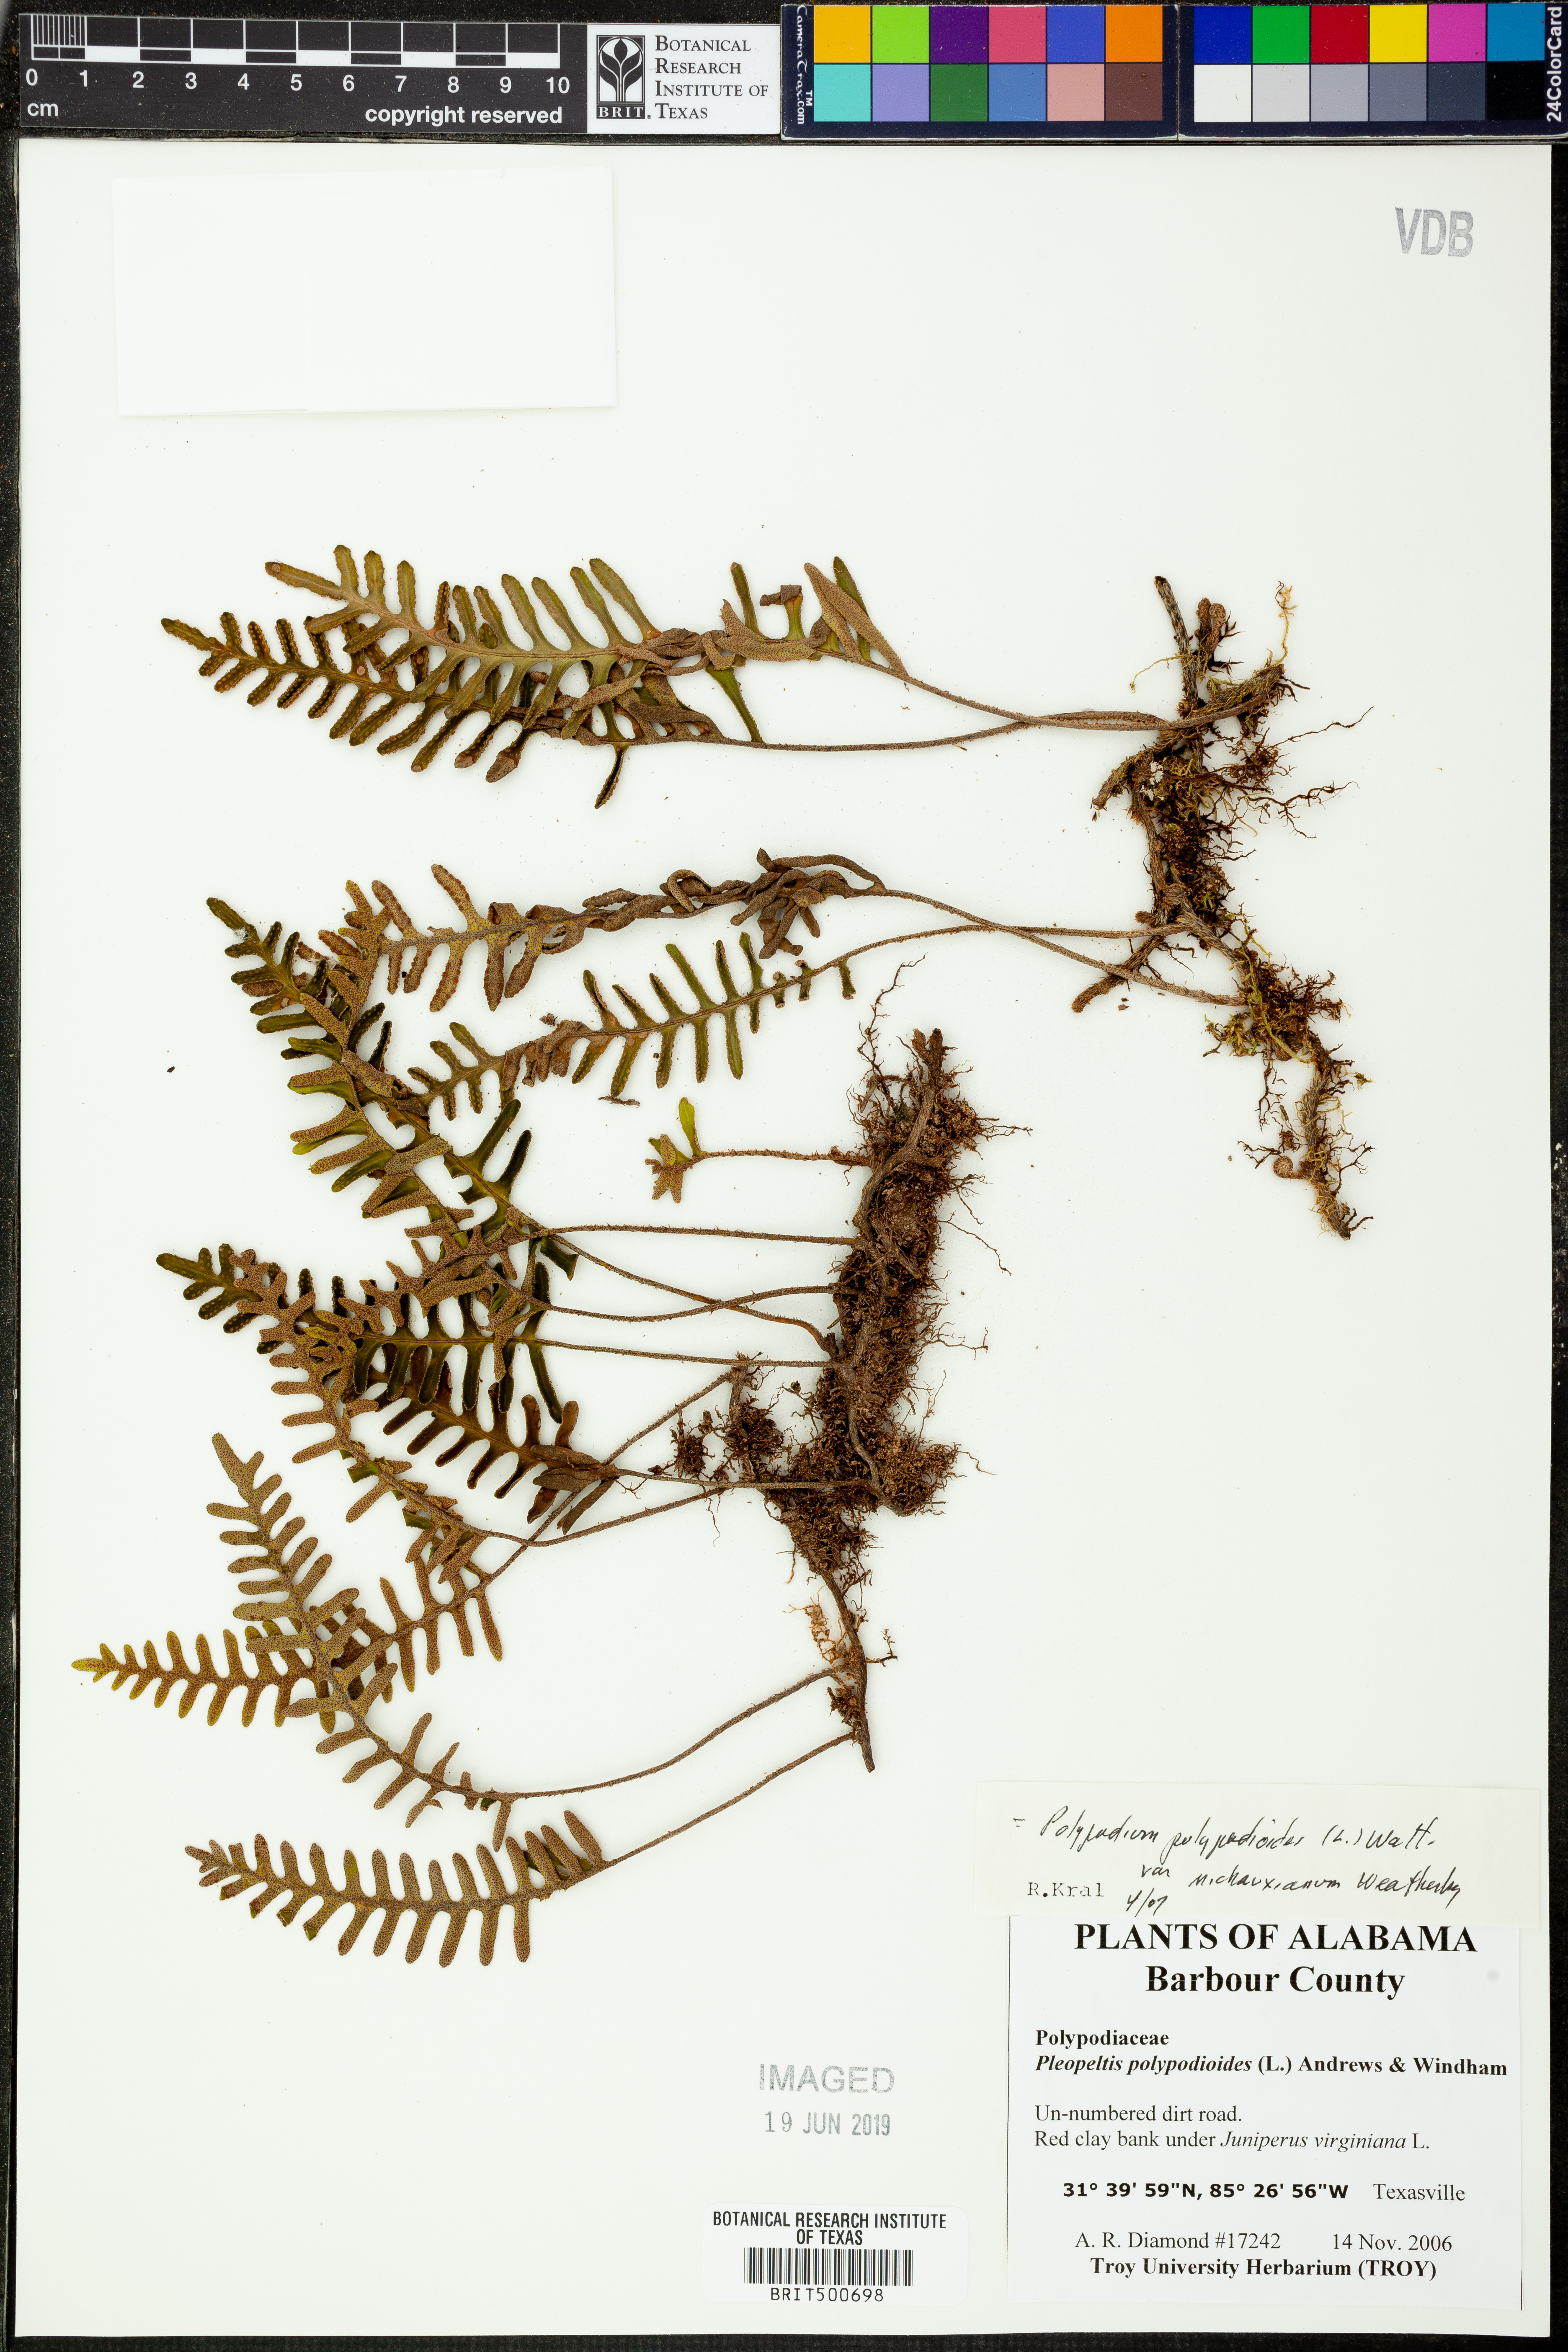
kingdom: Plantae
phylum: Tracheophyta
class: Polypodiopsida
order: Polypodiales
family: Polypodiaceae
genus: Pleopeltis
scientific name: Pleopeltis michauxiana
